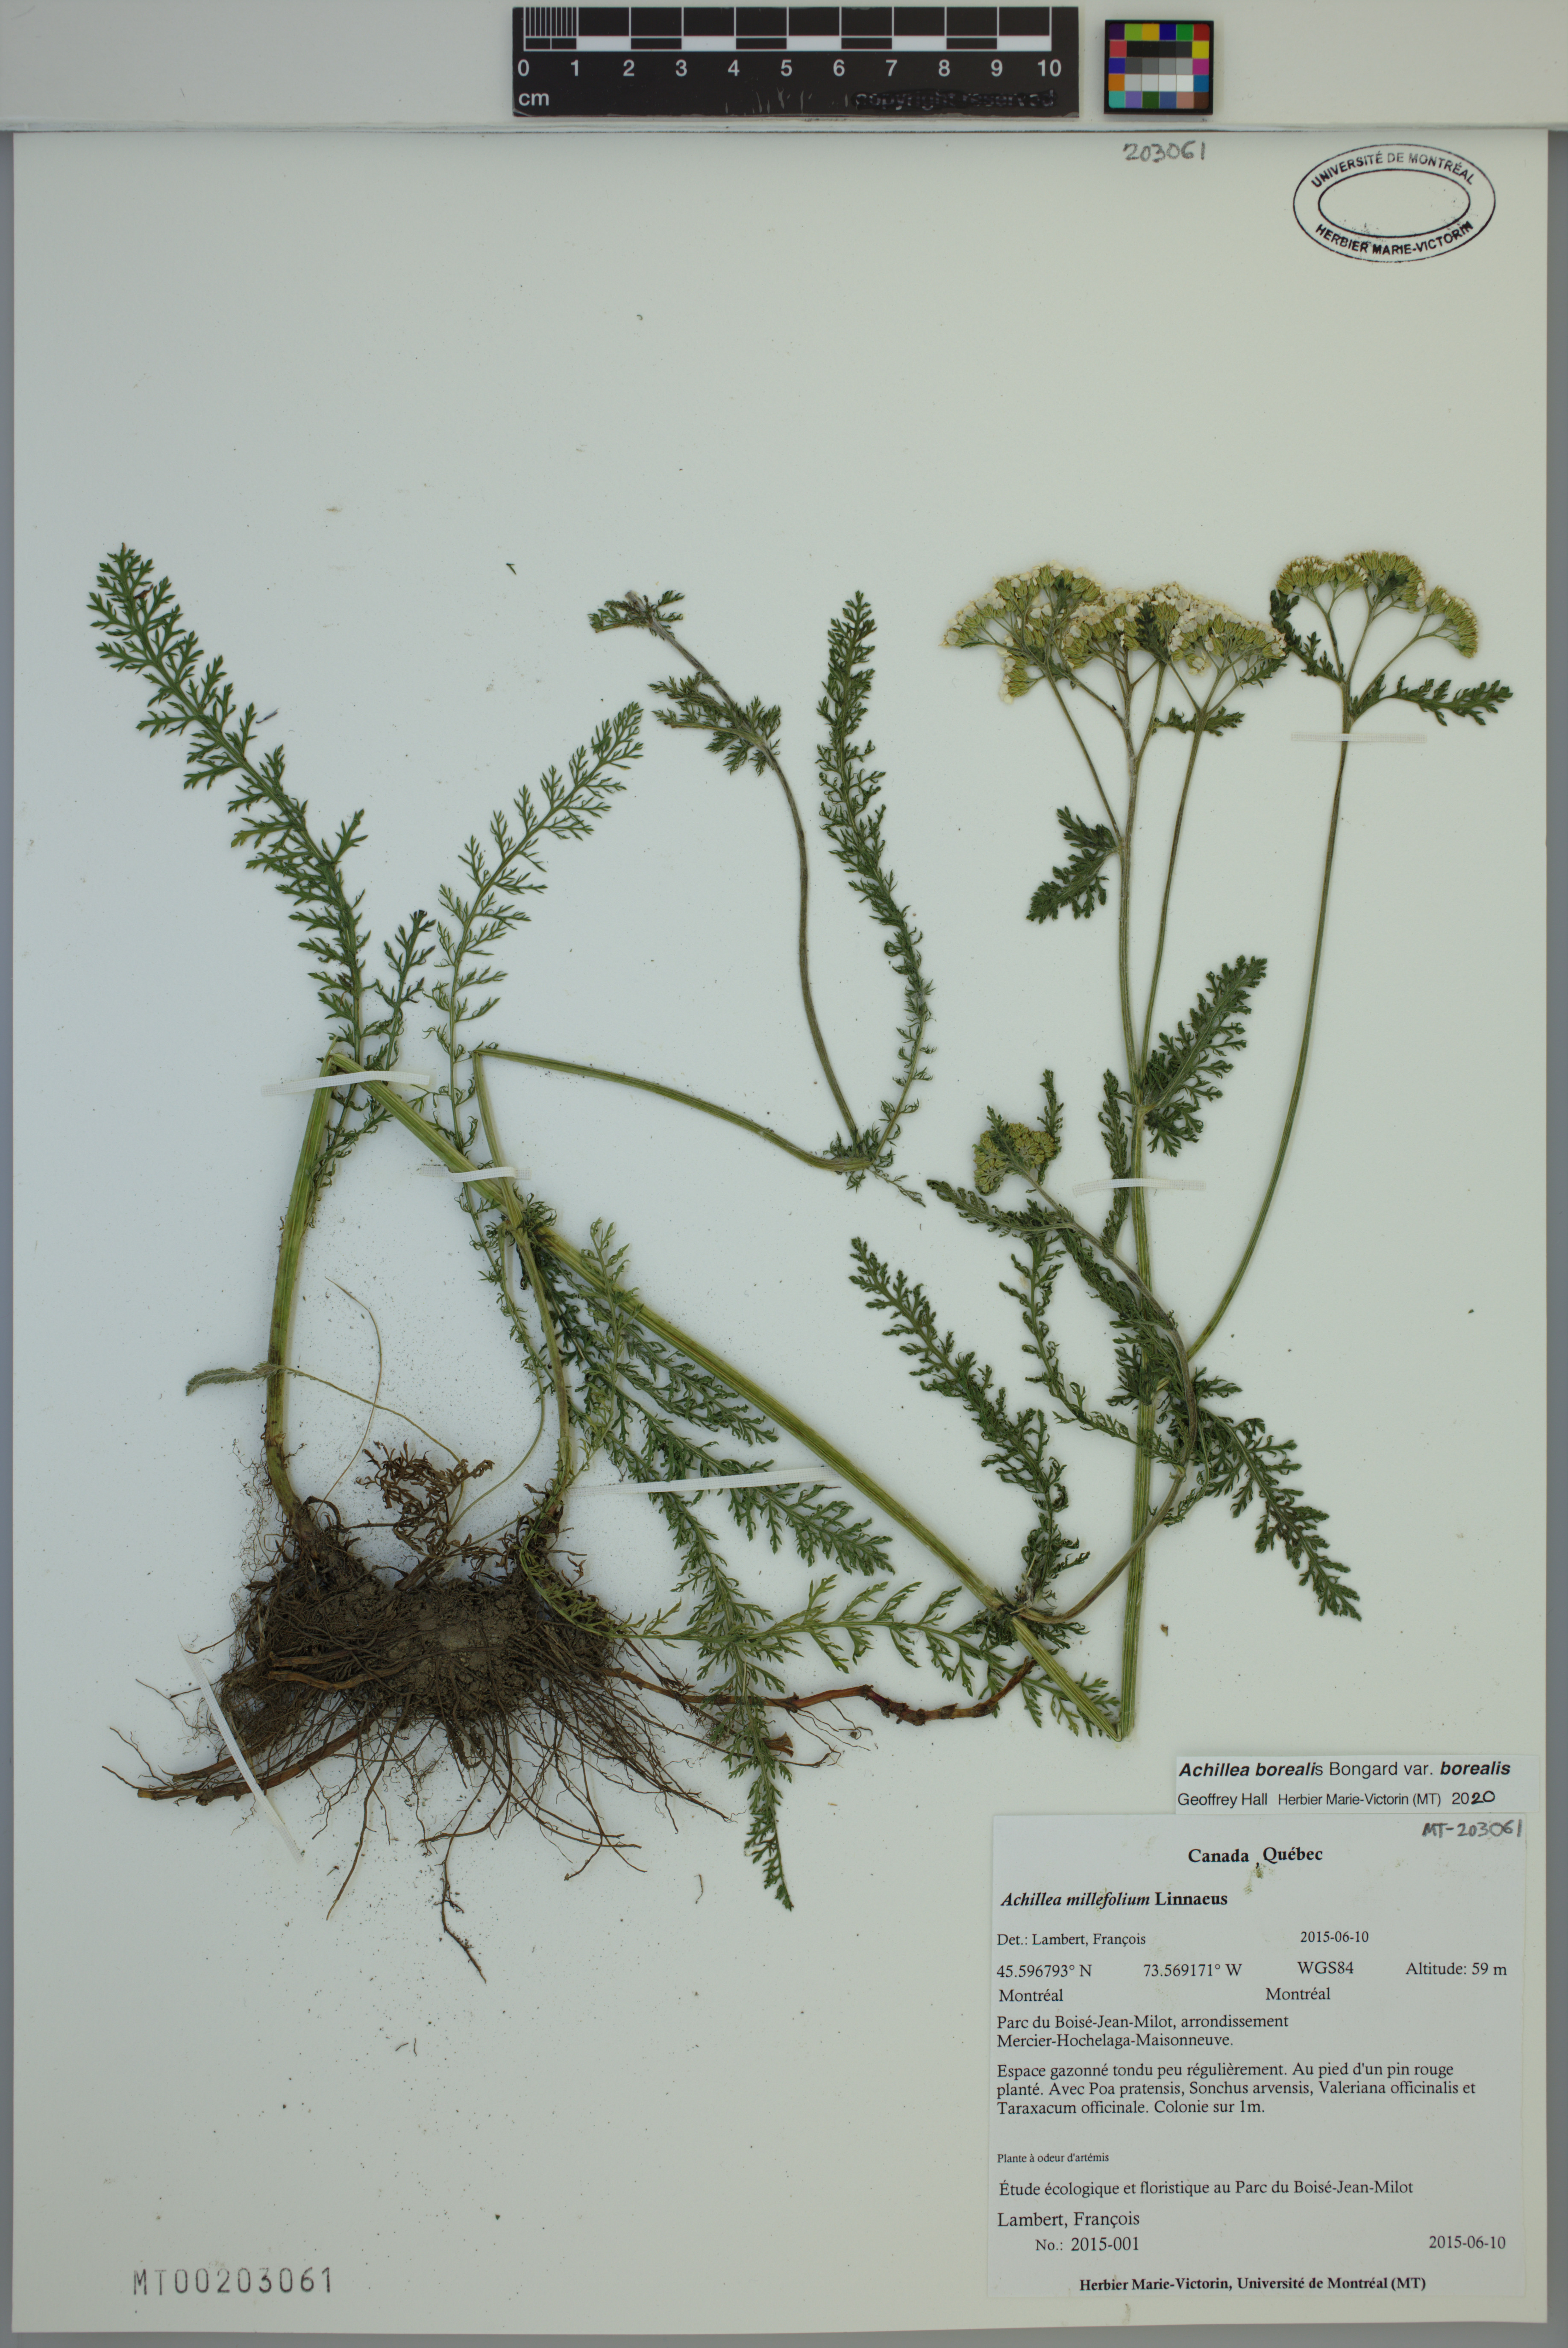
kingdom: Plantae
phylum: Tracheophyta
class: Magnoliopsida
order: Asterales
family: Asteraceae
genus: Achillea
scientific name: Achillea millefolium
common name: Yarrow
